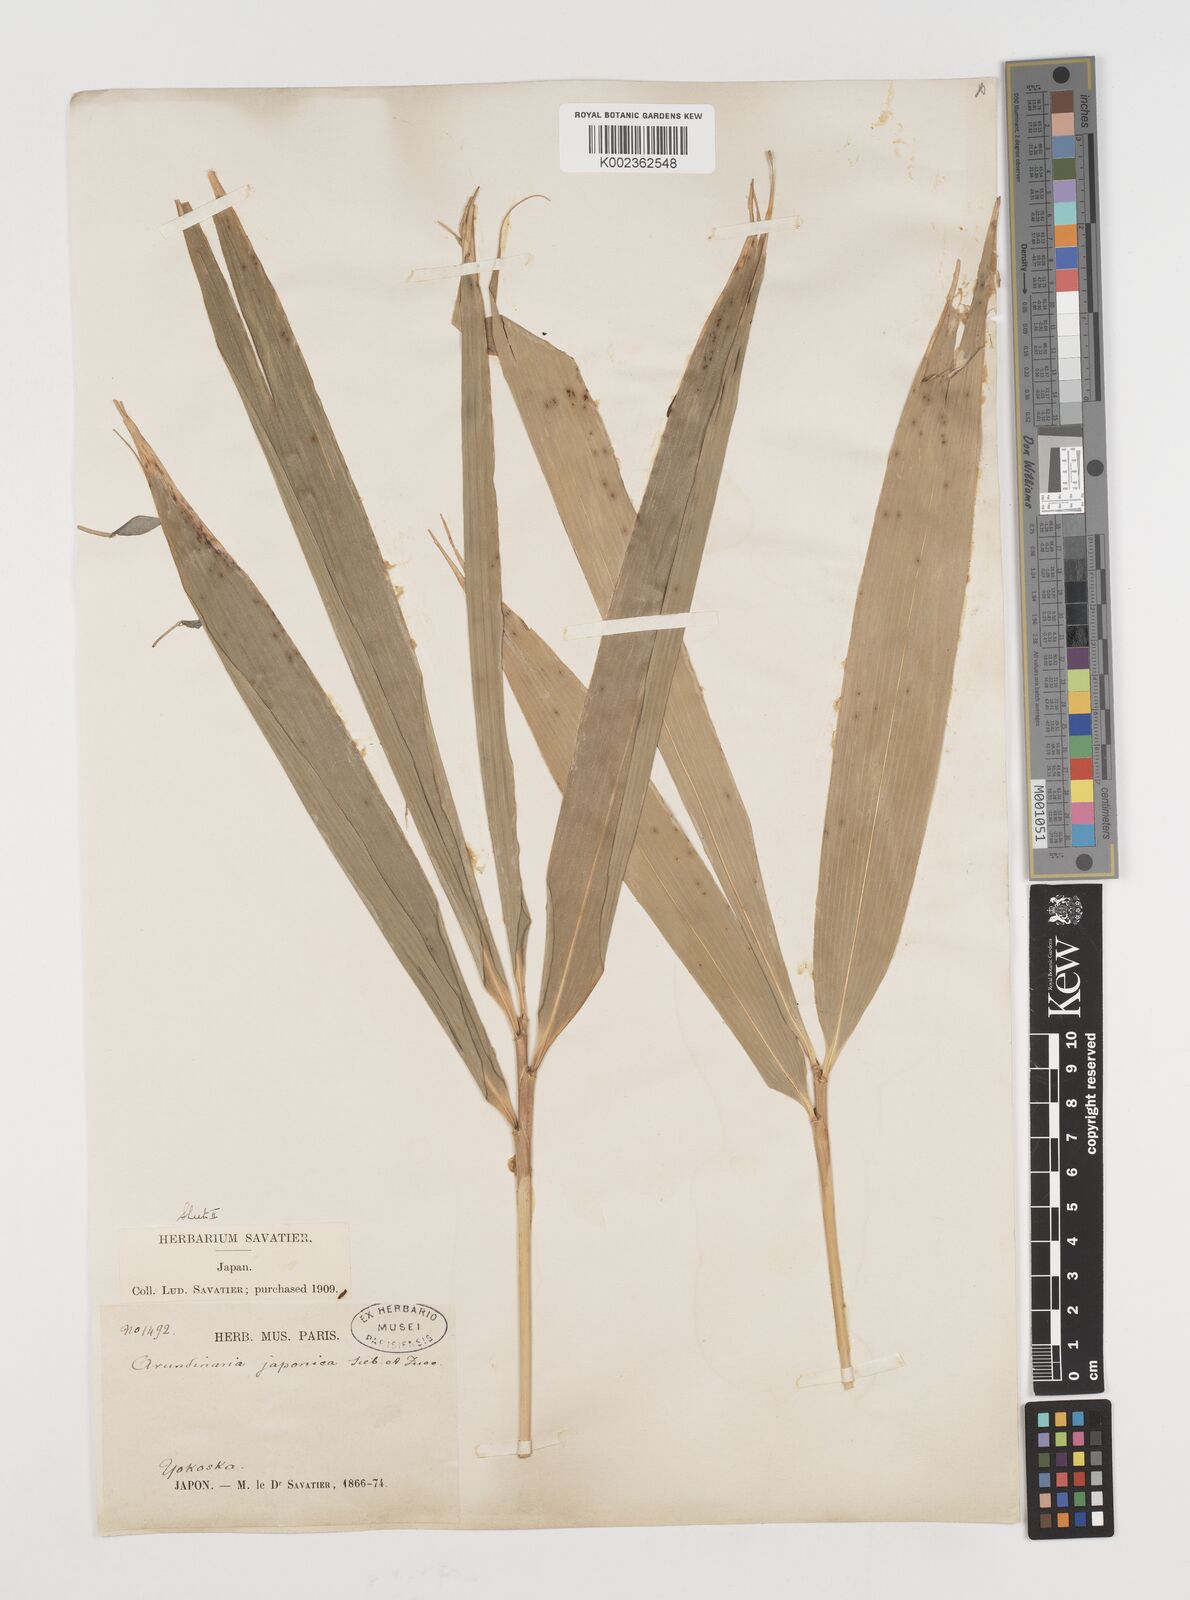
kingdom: Plantae
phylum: Tracheophyta
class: Liliopsida
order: Poales
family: Poaceae
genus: Pseudosasa
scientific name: Pseudosasa japonica
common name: Arrow bamboo
